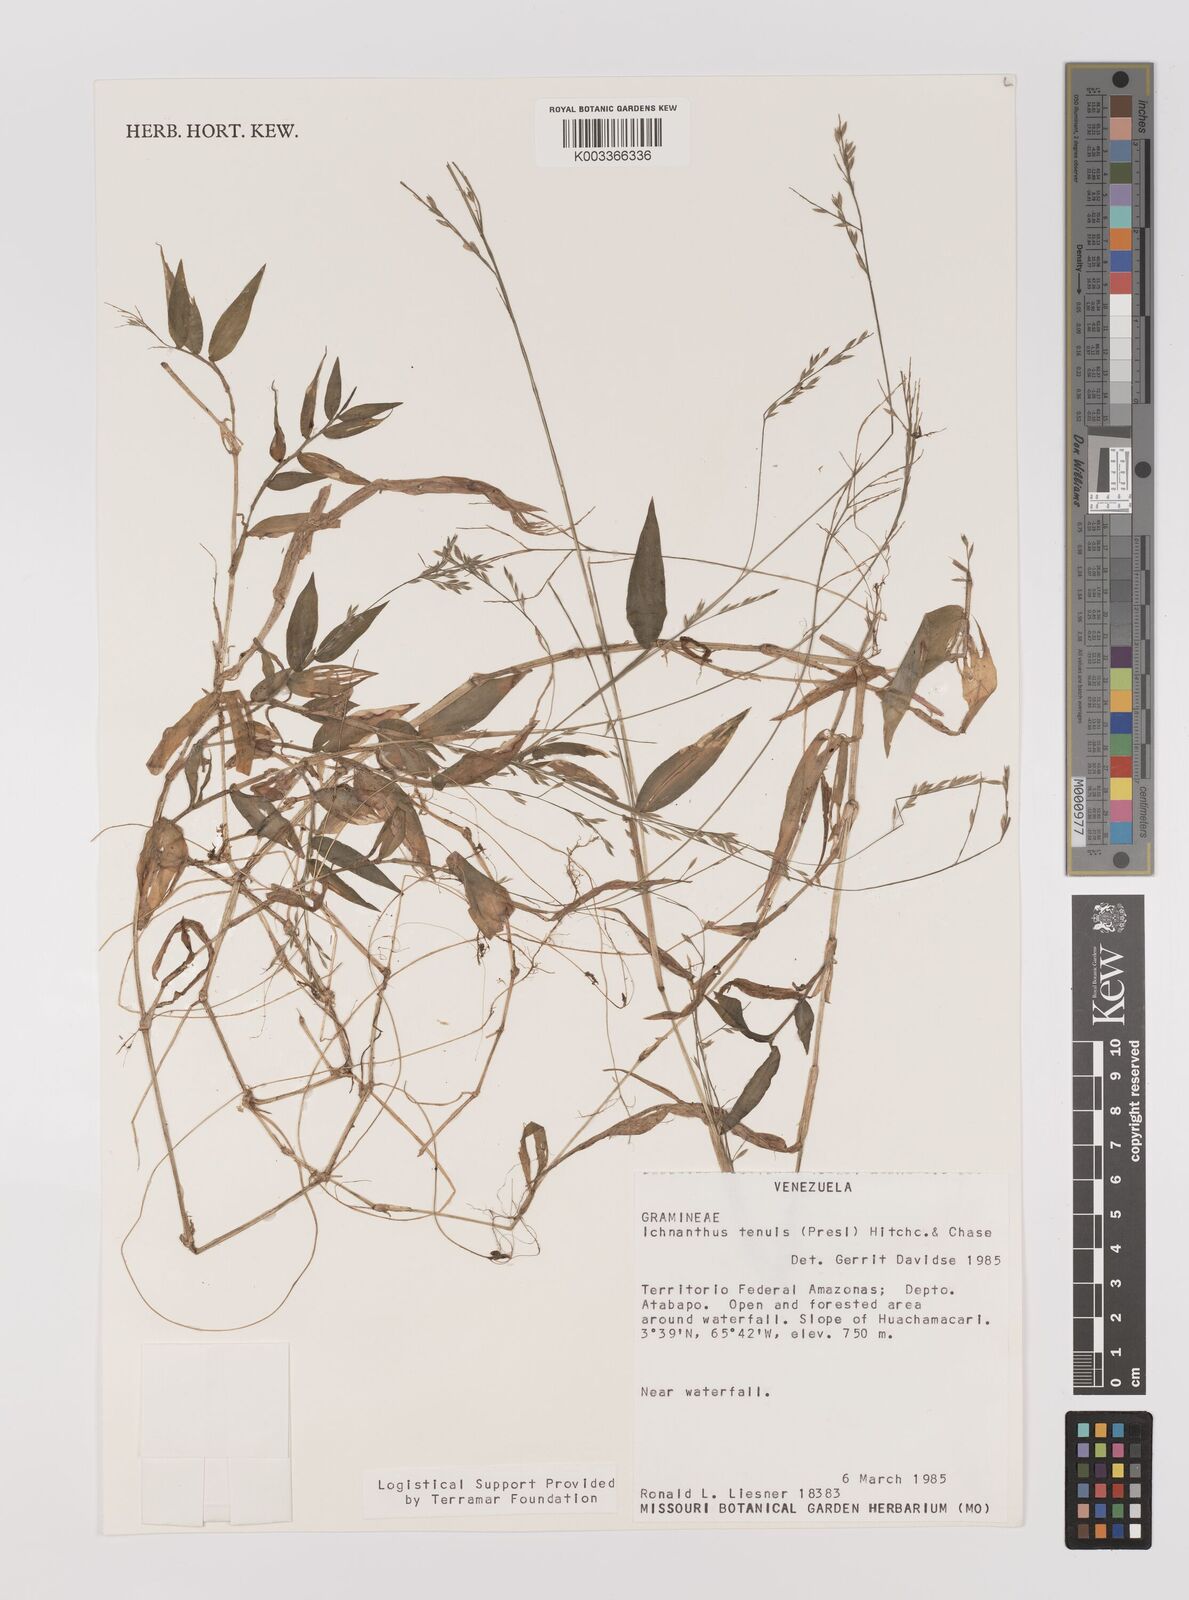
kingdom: Plantae
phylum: Tracheophyta
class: Liliopsida
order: Poales
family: Poaceae
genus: Ichnanthus
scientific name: Ichnanthus tenuis
